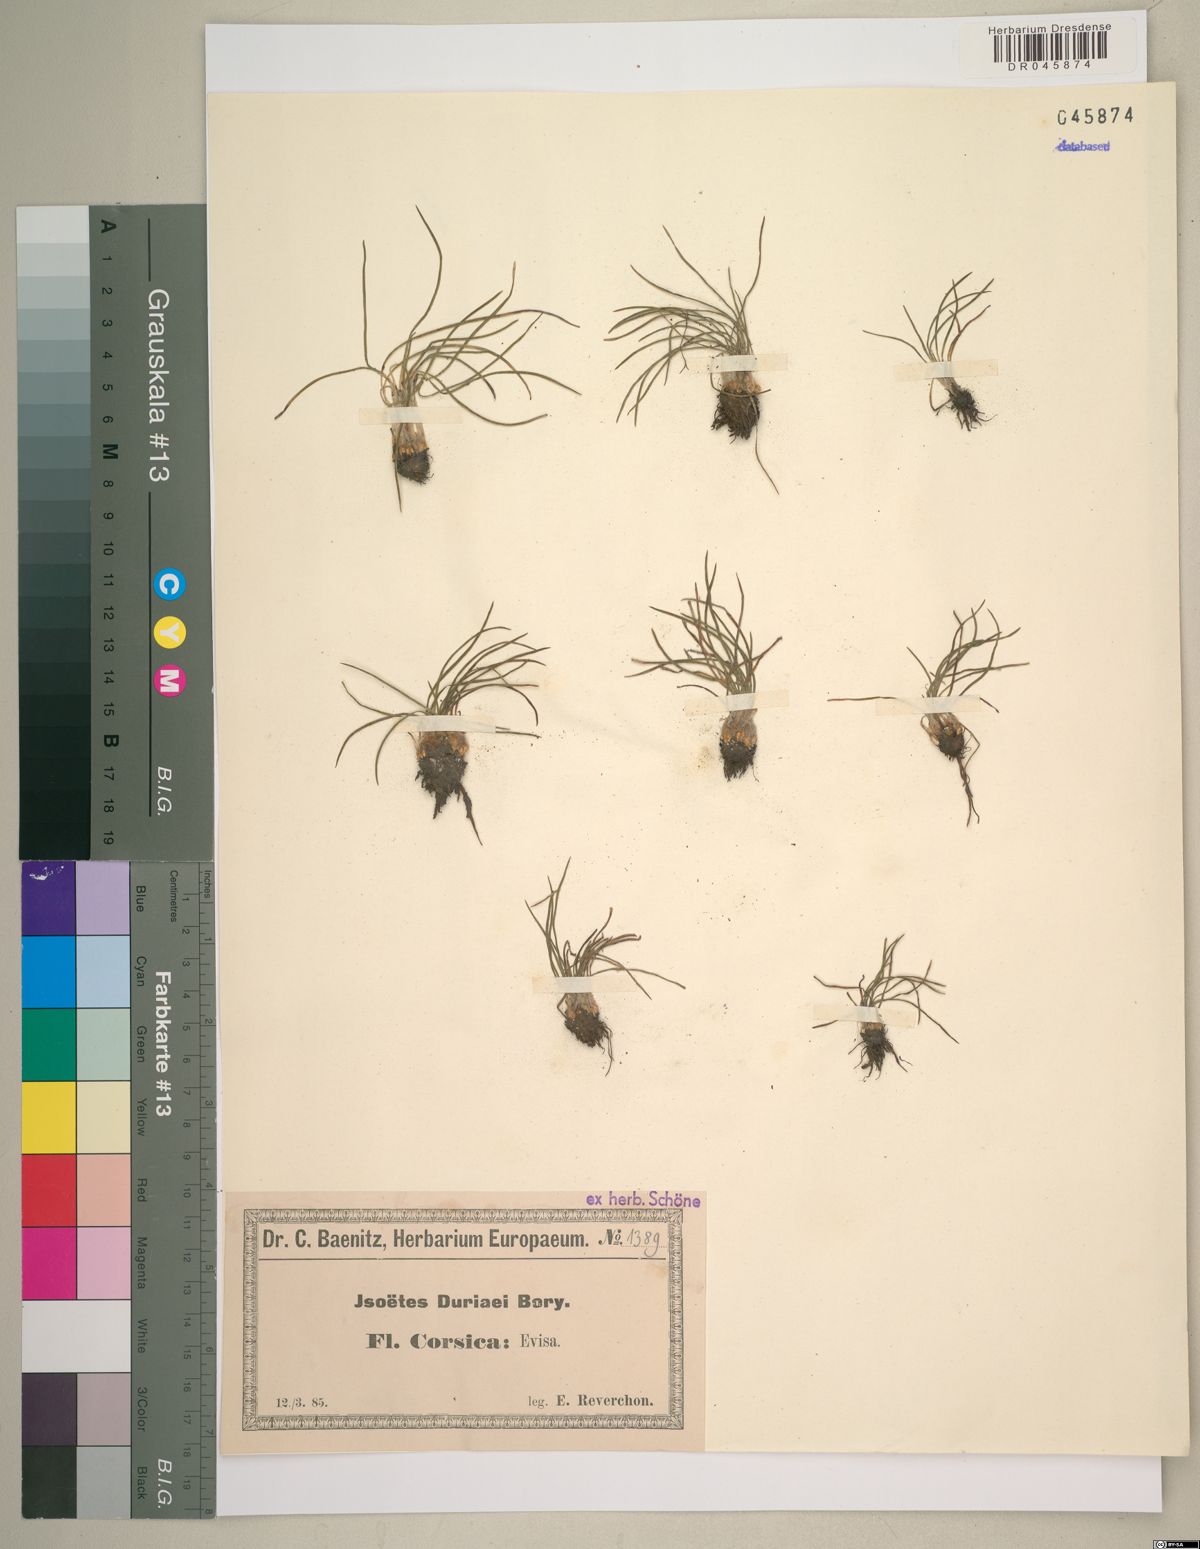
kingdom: Plantae
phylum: Tracheophyta
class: Lycopodiopsida
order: Isoetales
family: Isoetaceae
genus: Isoetes
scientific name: Isoetes duriei
